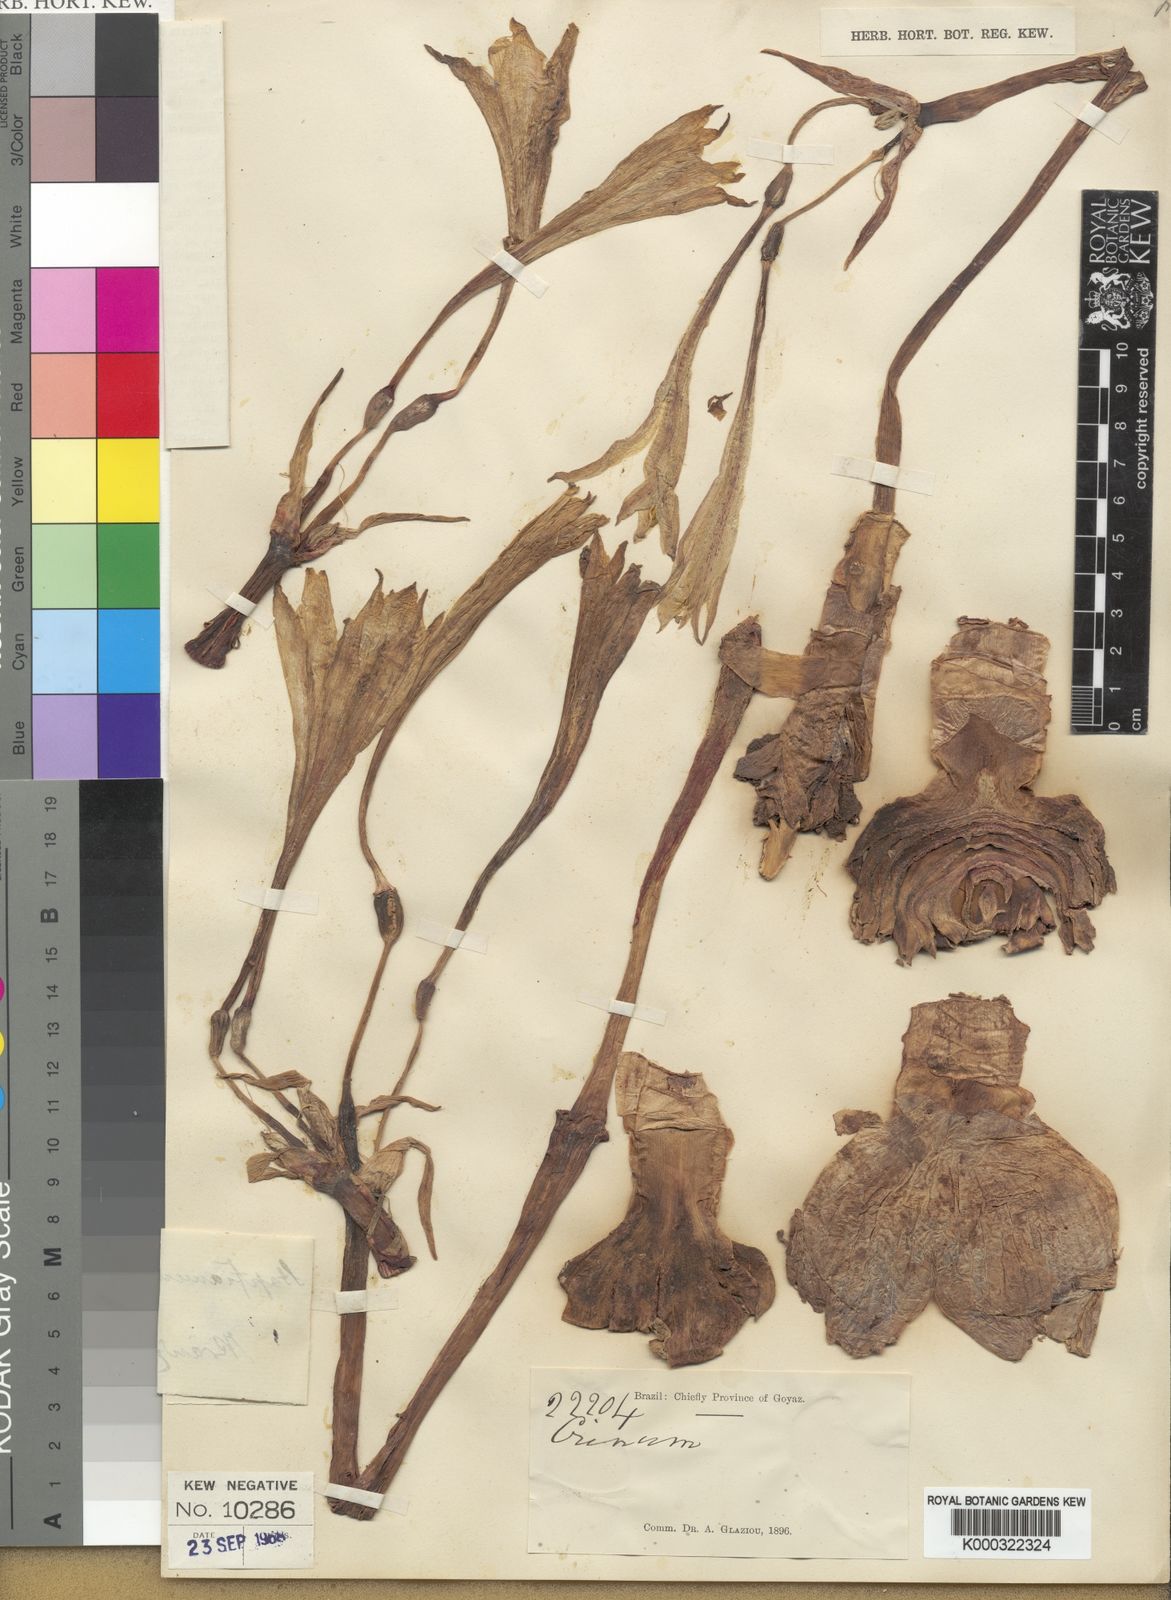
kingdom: Plantae
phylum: Tracheophyta
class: Liliopsida
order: Asparagales
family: Amaryllidaceae
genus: Hippeastrum
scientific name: Hippeastrum stapfianum
